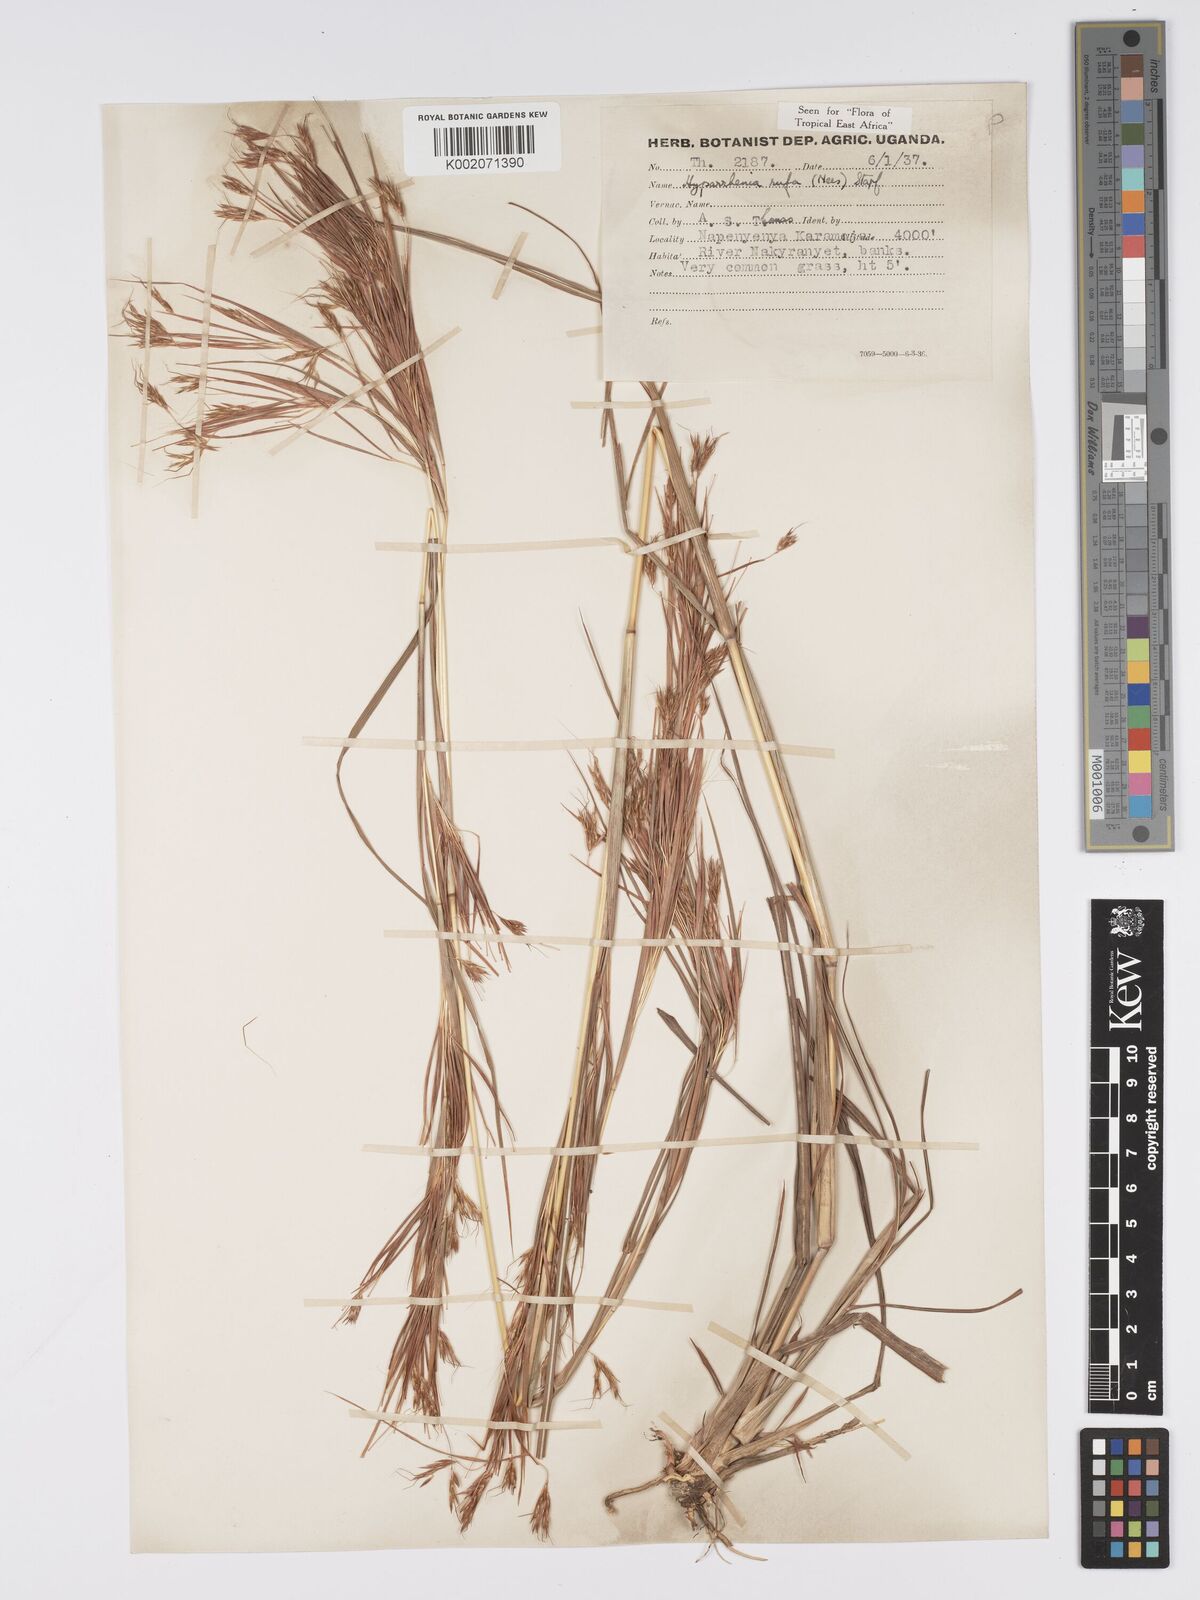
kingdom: Plantae
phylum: Tracheophyta
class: Liliopsida
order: Poales
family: Poaceae
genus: Hyparrhenia
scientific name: Hyparrhenia rufa
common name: Jaraguagrass
